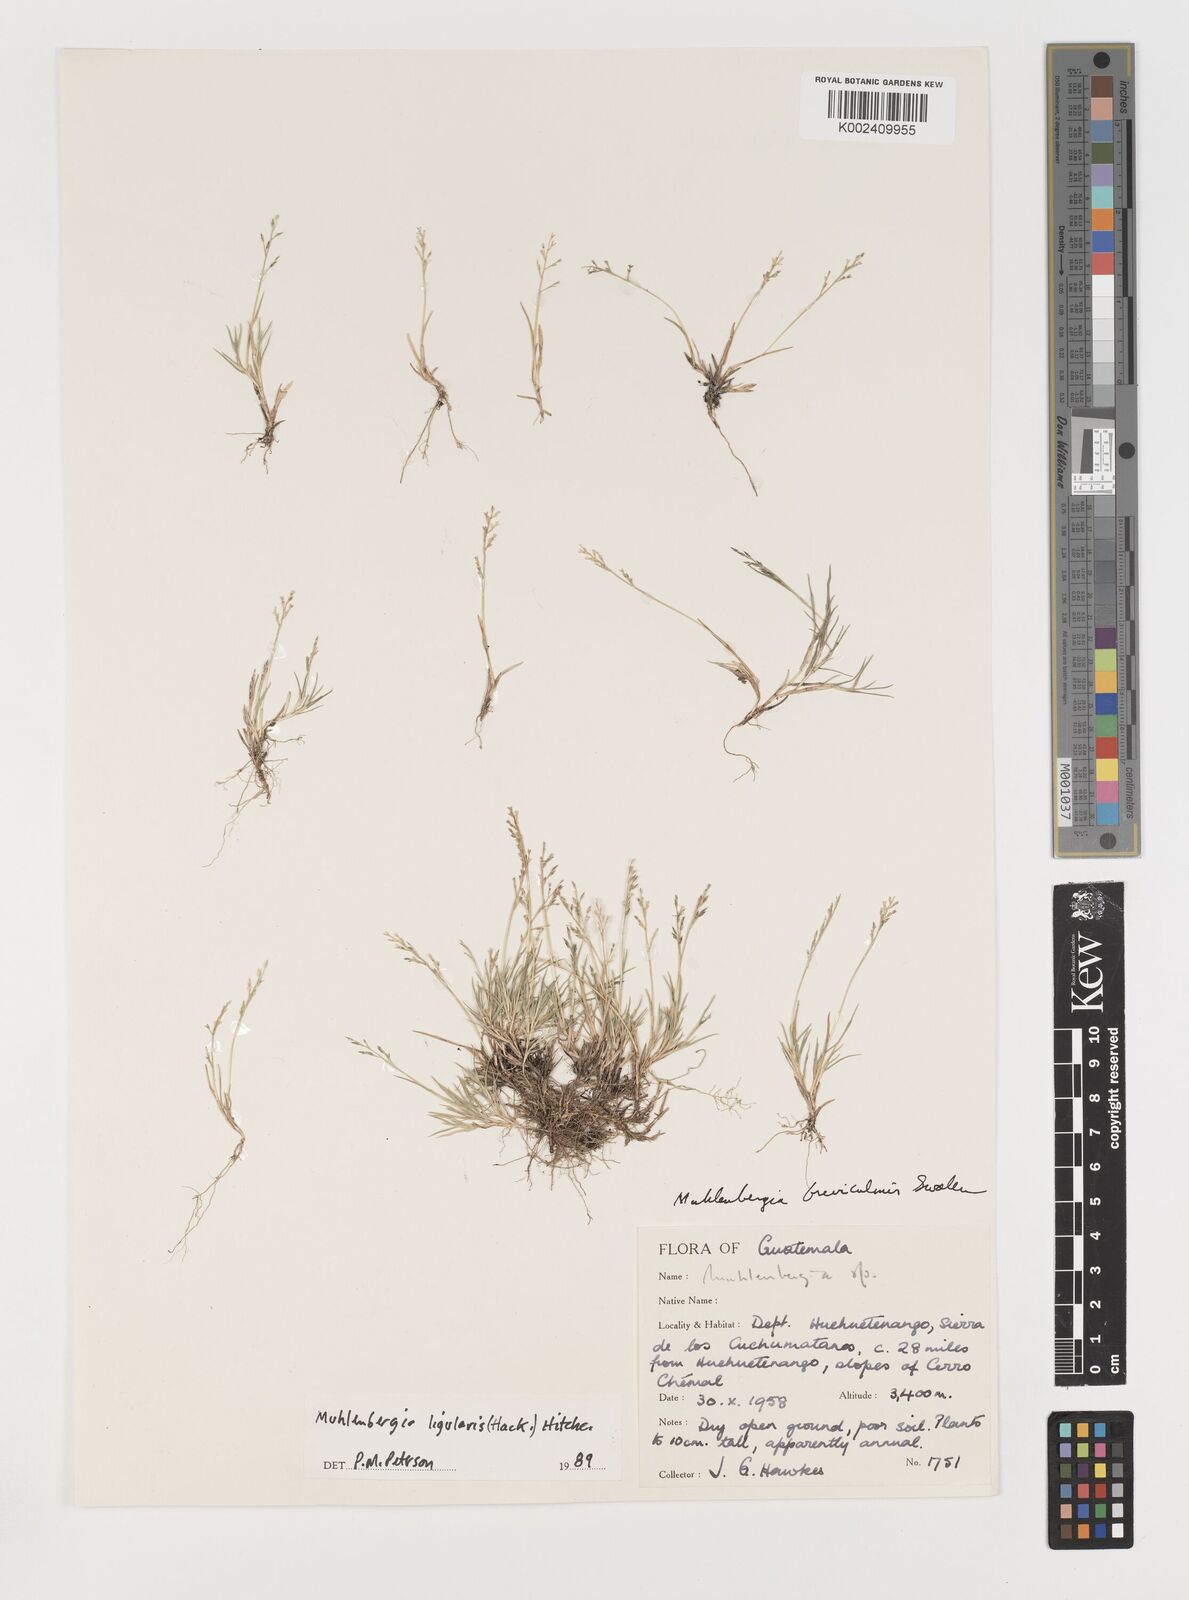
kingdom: Plantae
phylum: Tracheophyta
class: Liliopsida
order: Poales
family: Poaceae
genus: Muhlenbergia
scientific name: Muhlenbergia ligularis
